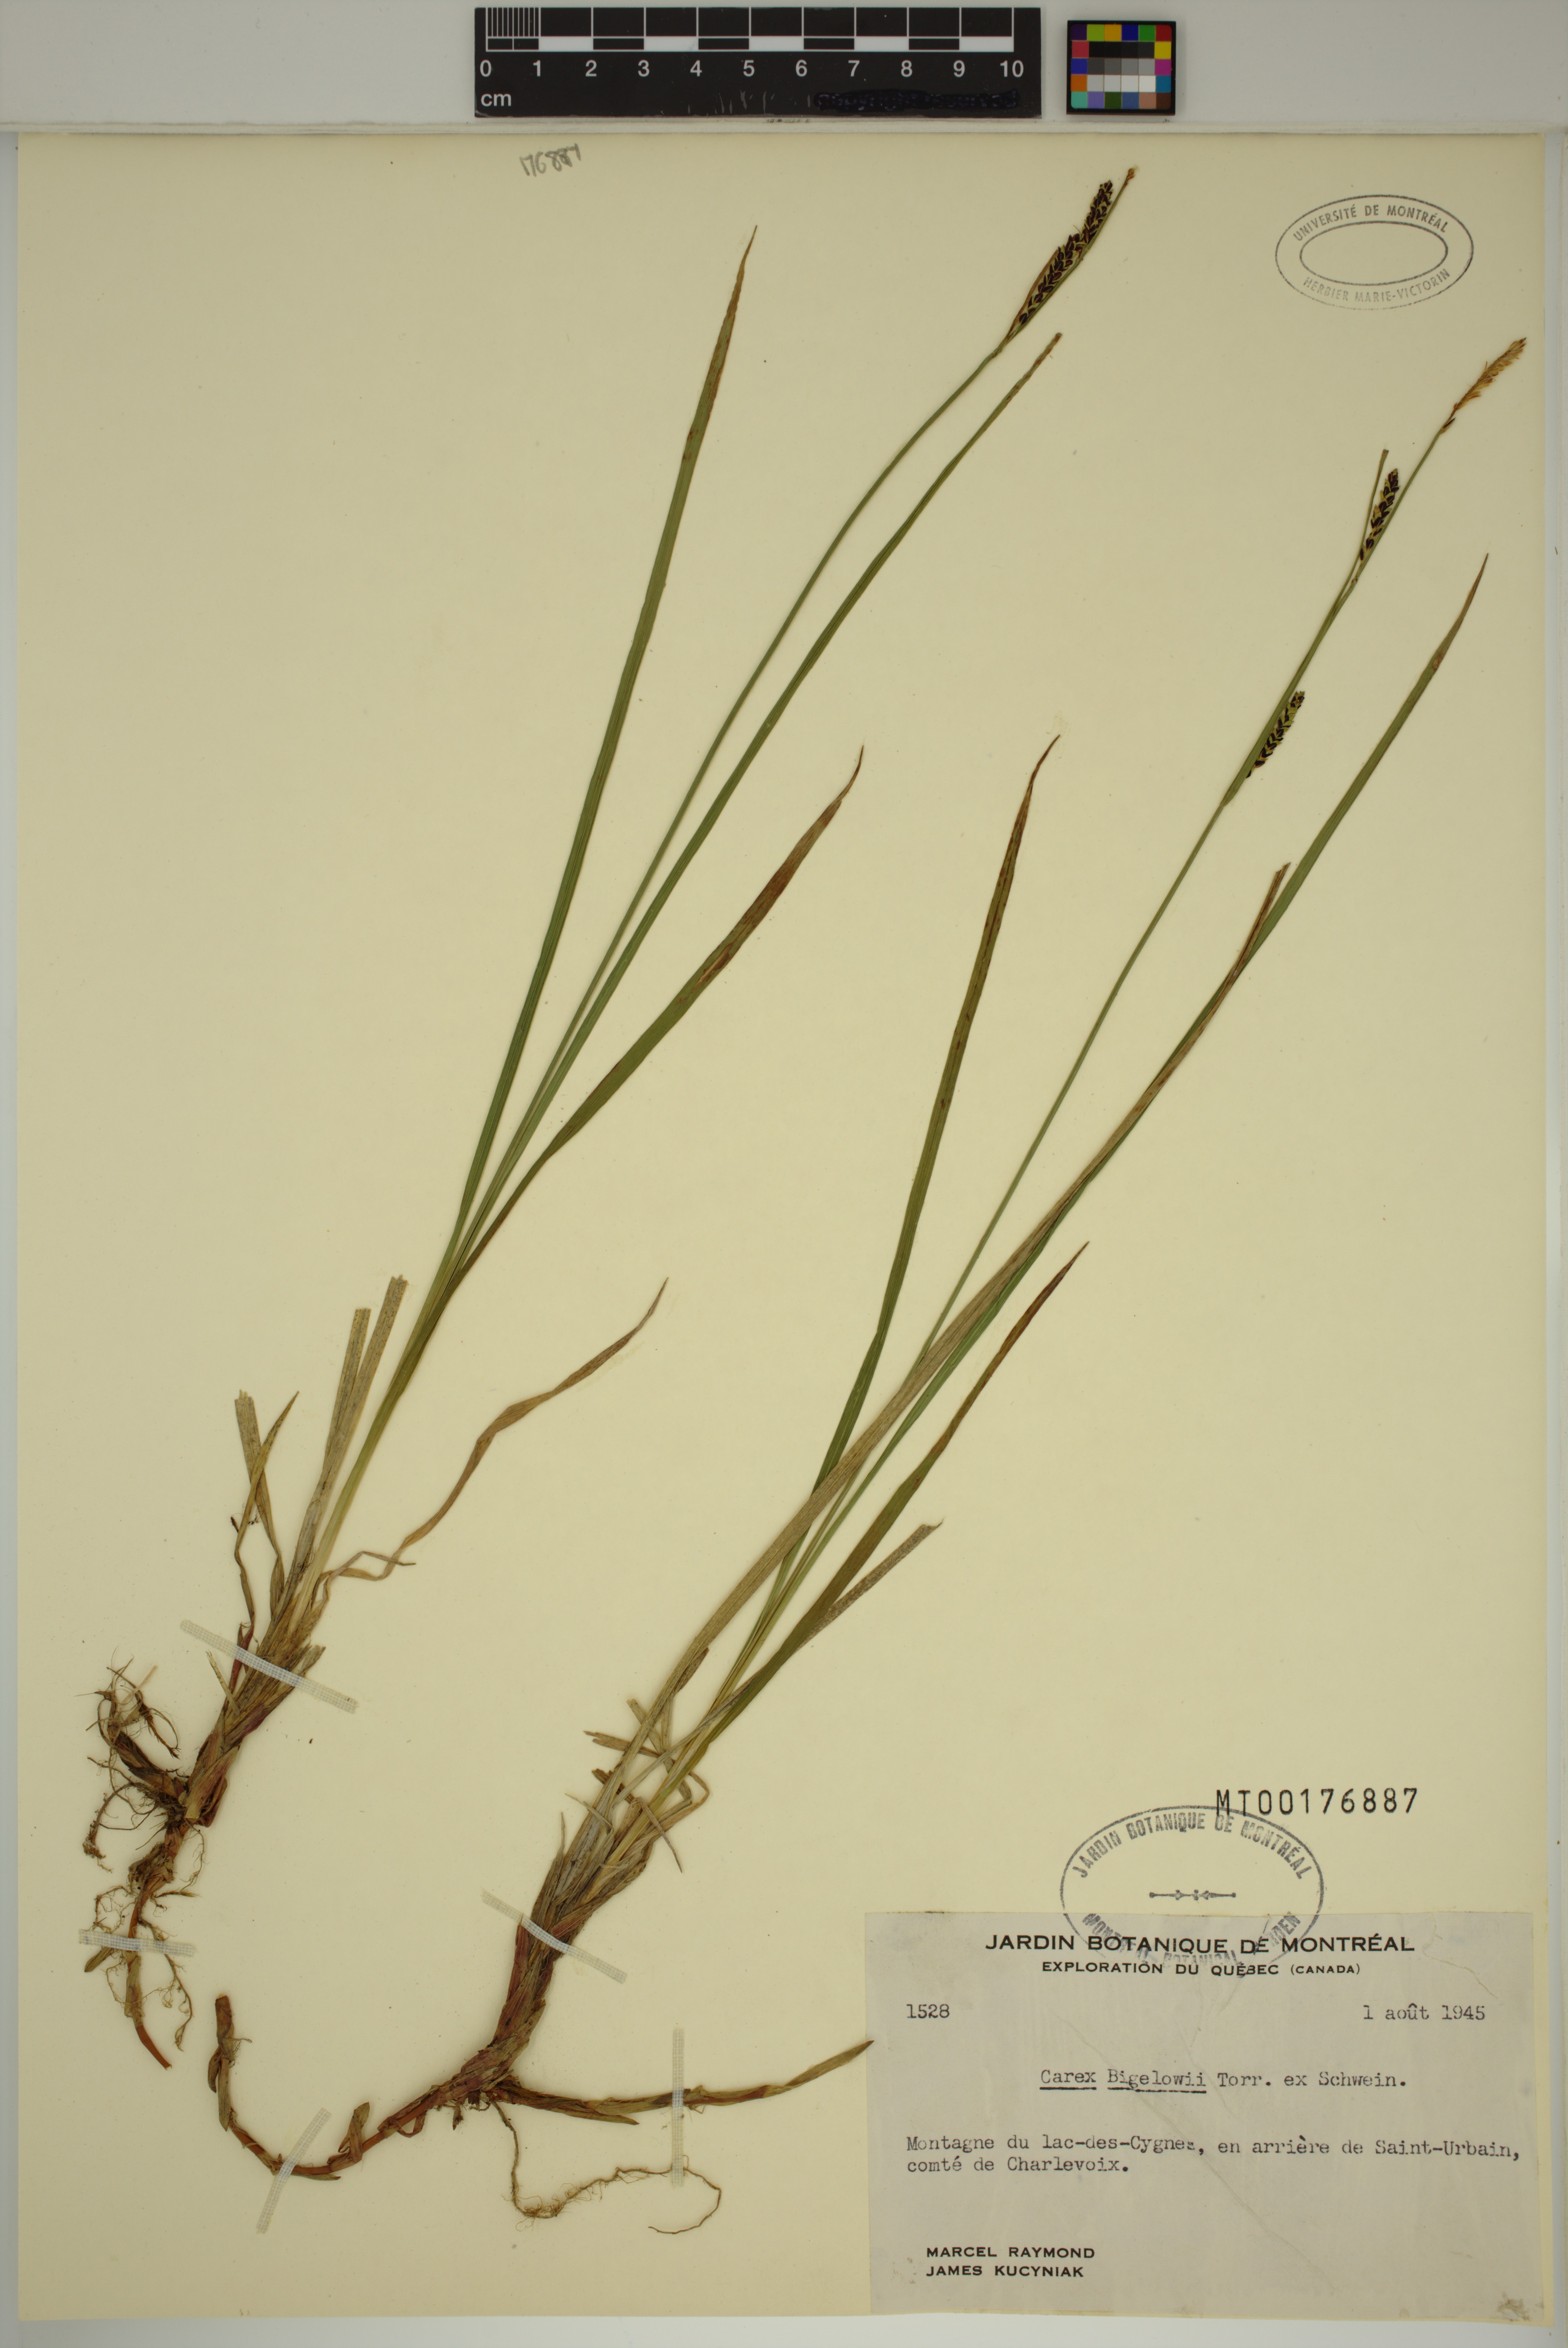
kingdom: Plantae
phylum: Tracheophyta
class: Liliopsida
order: Poales
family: Cyperaceae
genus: Carex
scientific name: Carex bigelowii
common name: Stiff sedge
